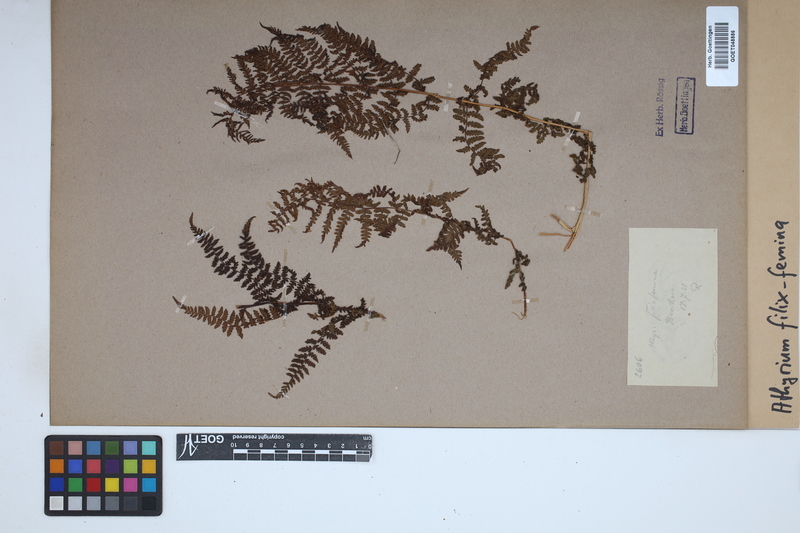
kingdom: Plantae
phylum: Tracheophyta
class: Polypodiopsida
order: Polypodiales
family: Athyriaceae
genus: Athyrium
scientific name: Athyrium filix-femina
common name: Lady fern
